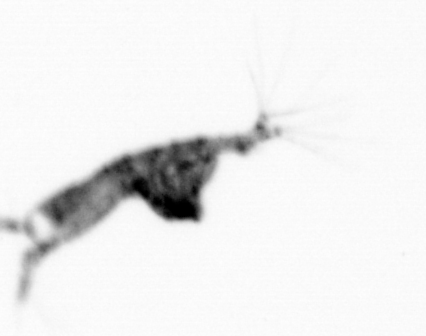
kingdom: Animalia
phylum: Arthropoda
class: Copepoda
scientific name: Copepoda
